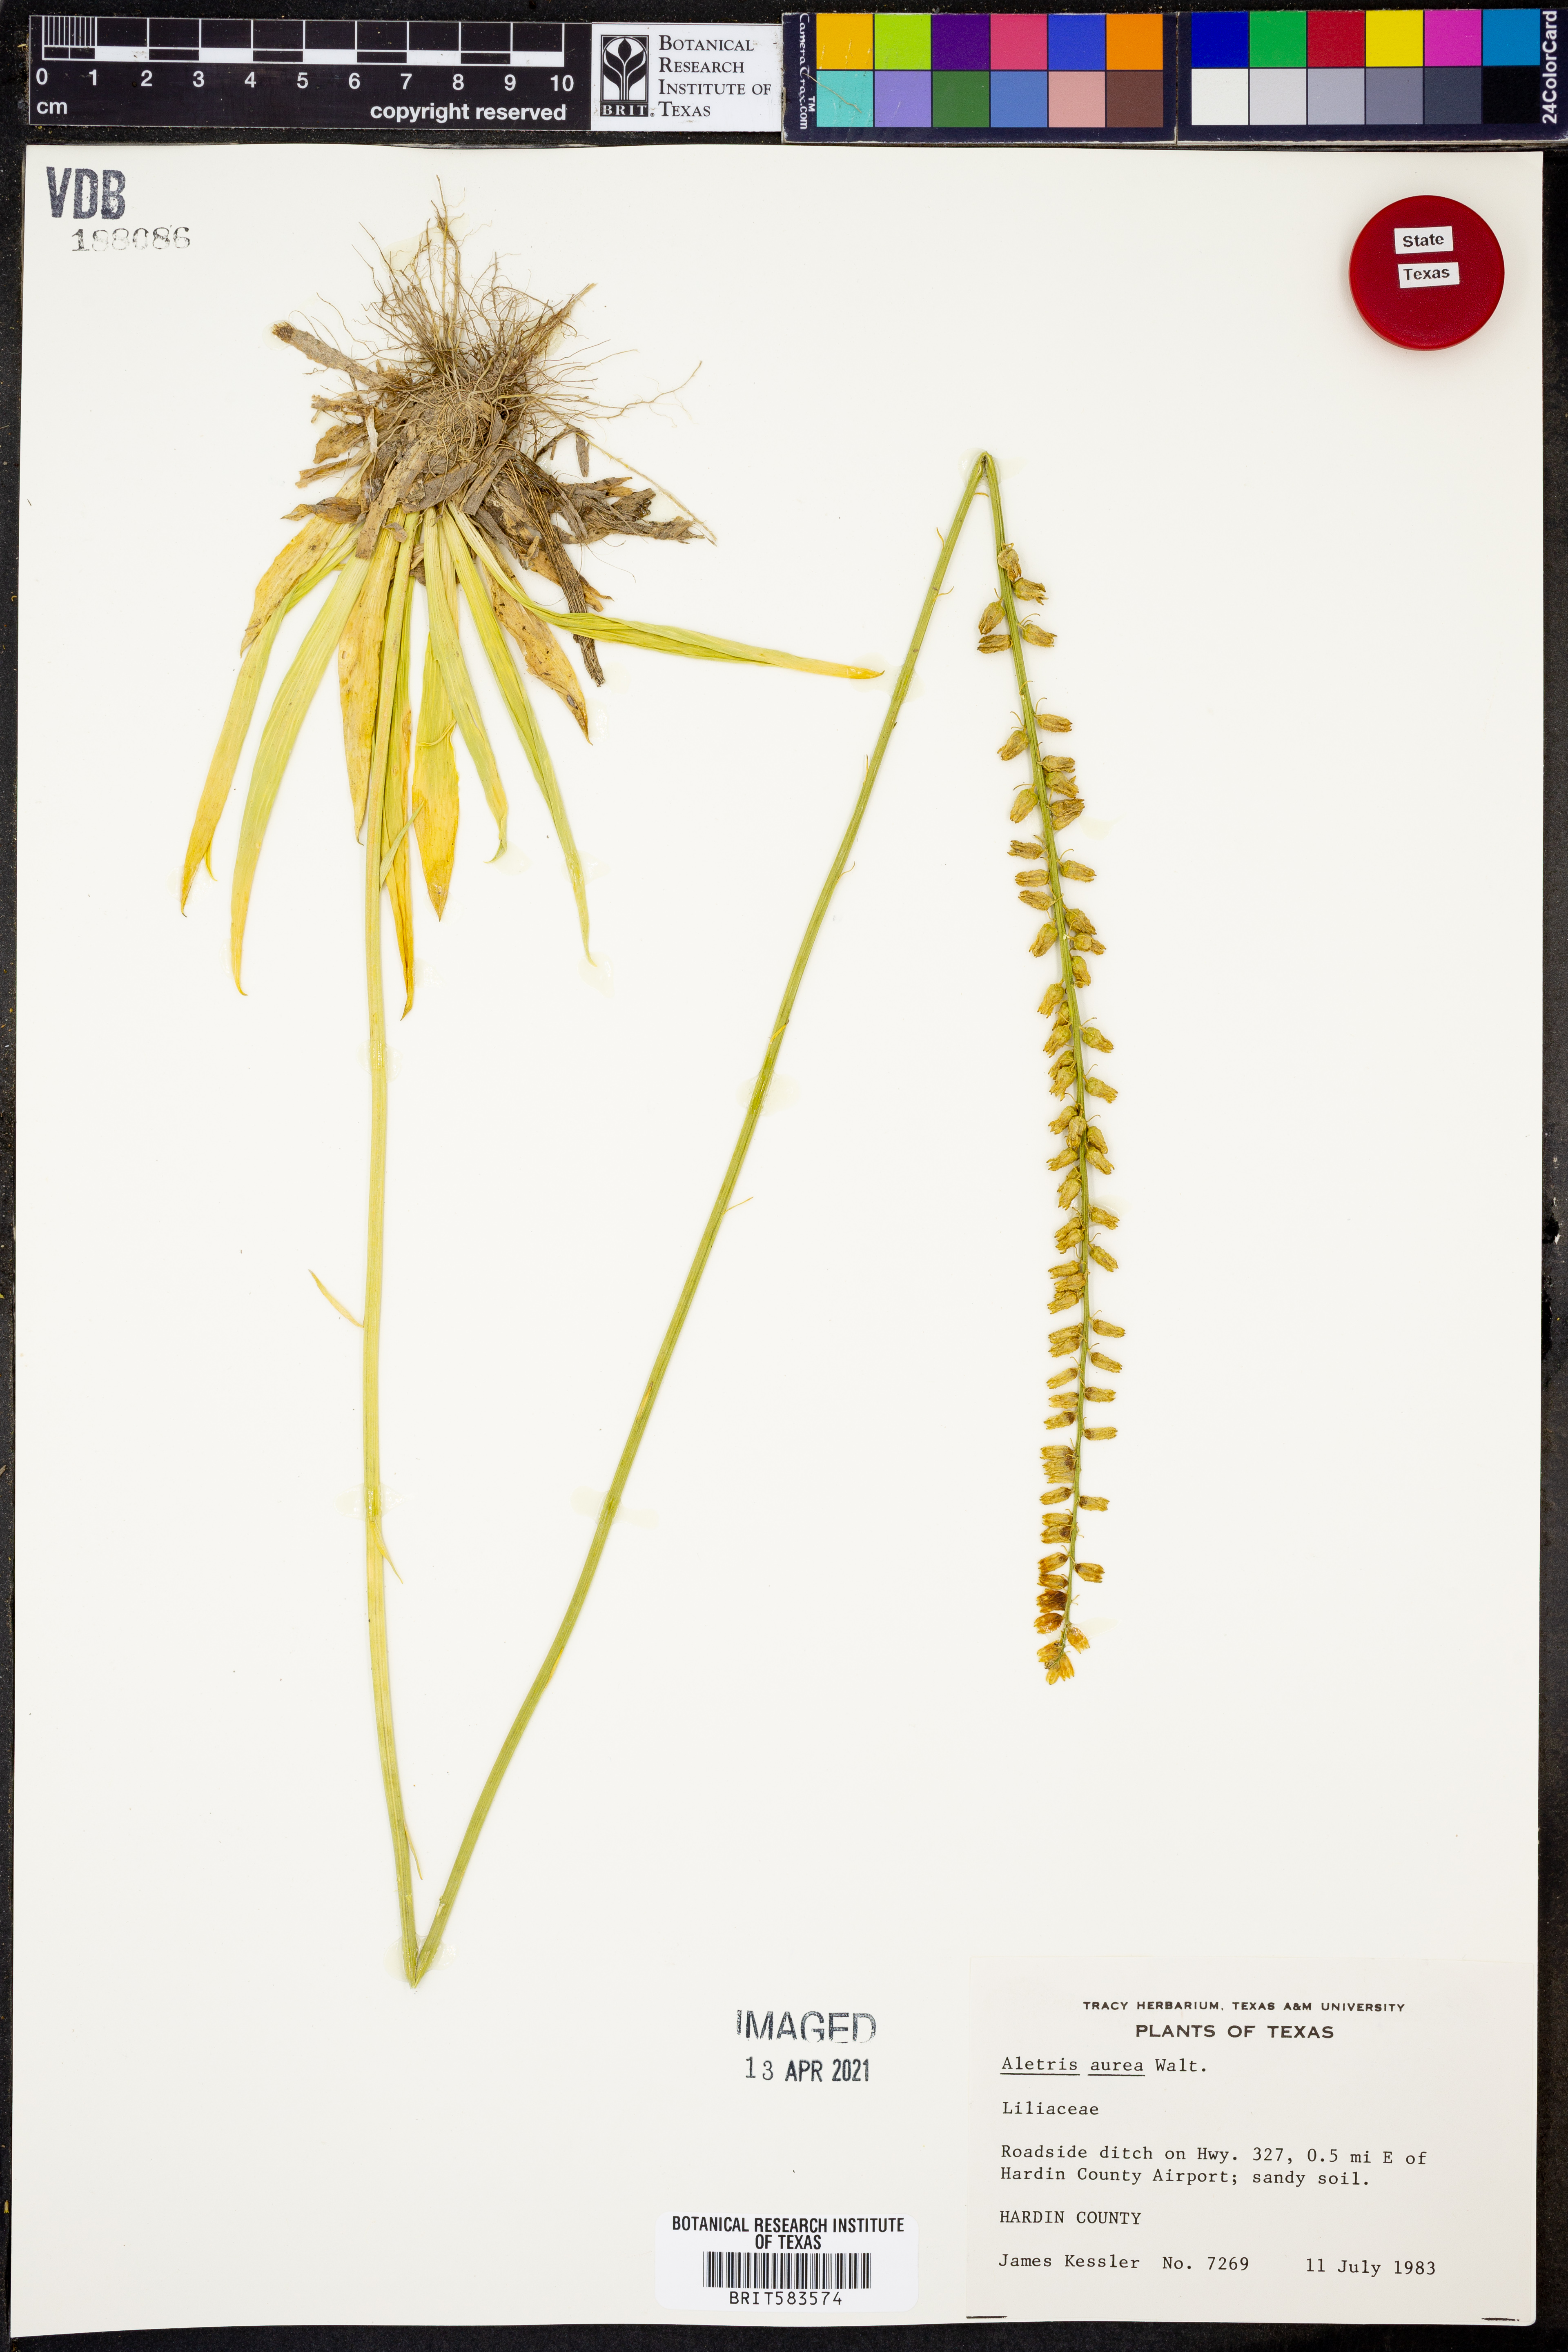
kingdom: Plantae
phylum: Tracheophyta
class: Liliopsida
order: Dioscoreales
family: Nartheciaceae
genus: Aletris
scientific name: Aletris aurea
